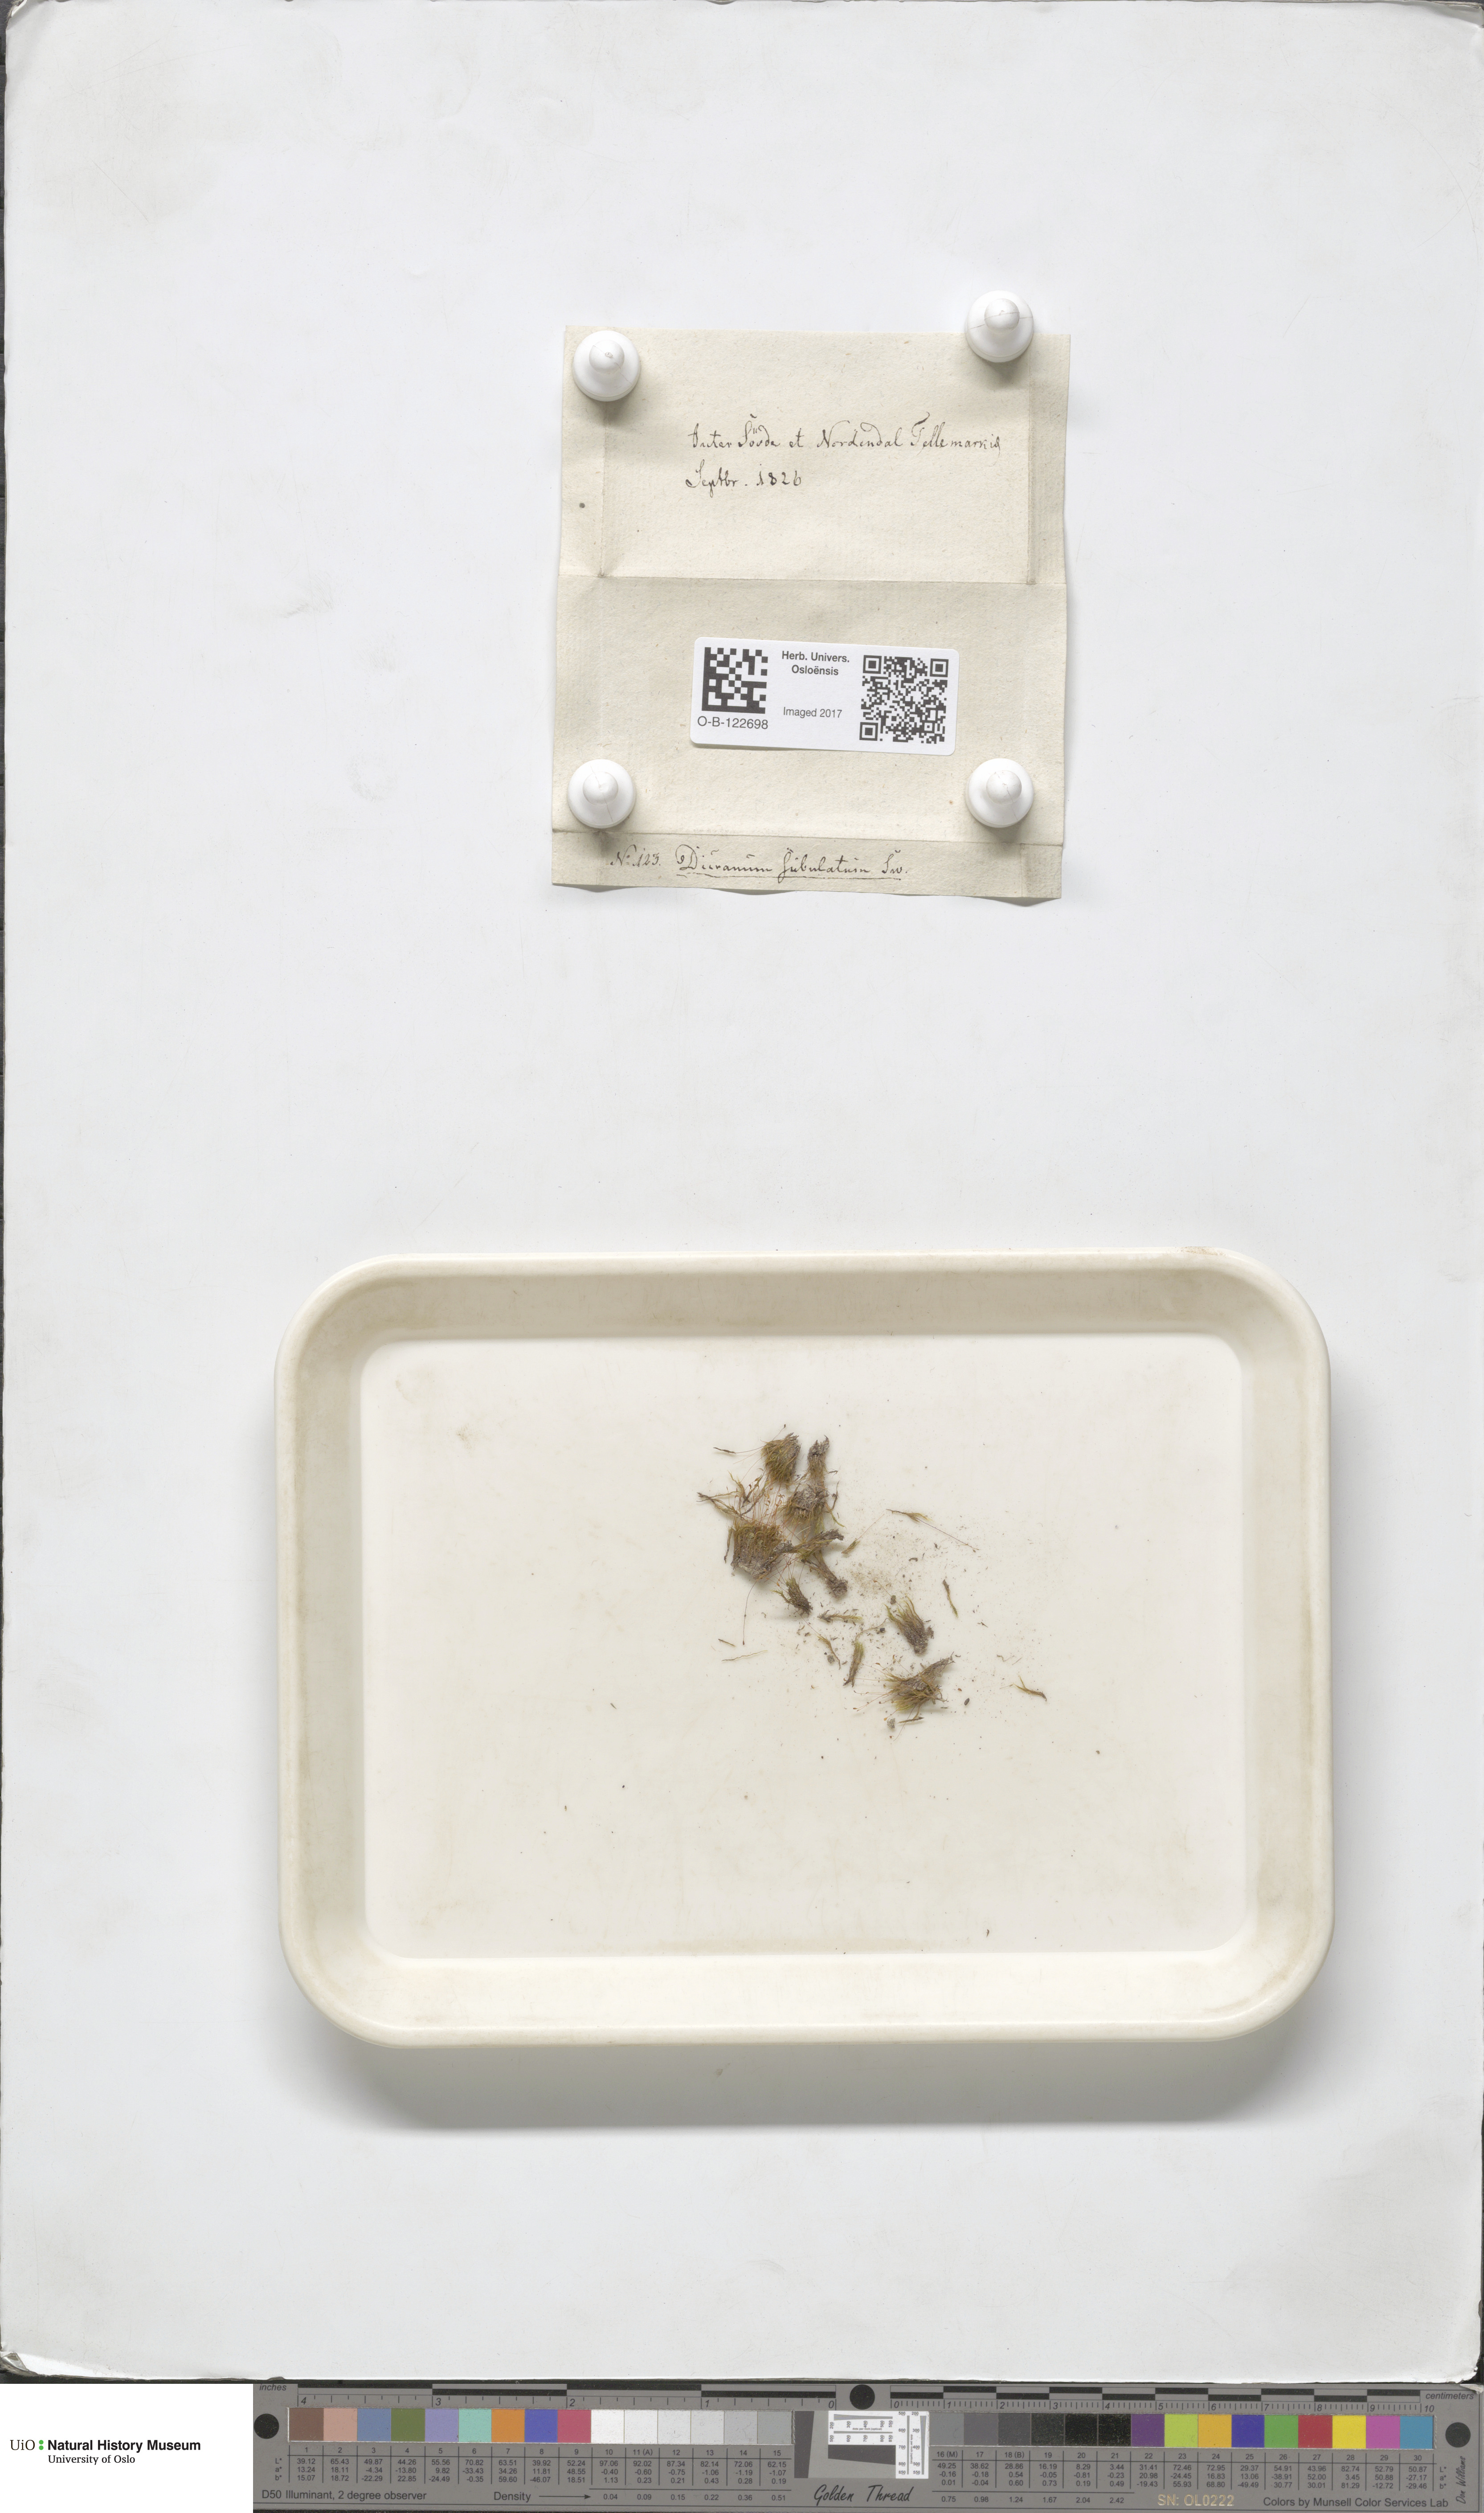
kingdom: Plantae
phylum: Bryophyta
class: Bryopsida
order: Dicranales
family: Dicranellaceae
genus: Dicranella
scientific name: Dicranella subulata
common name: Awl-leaved forklet moss
